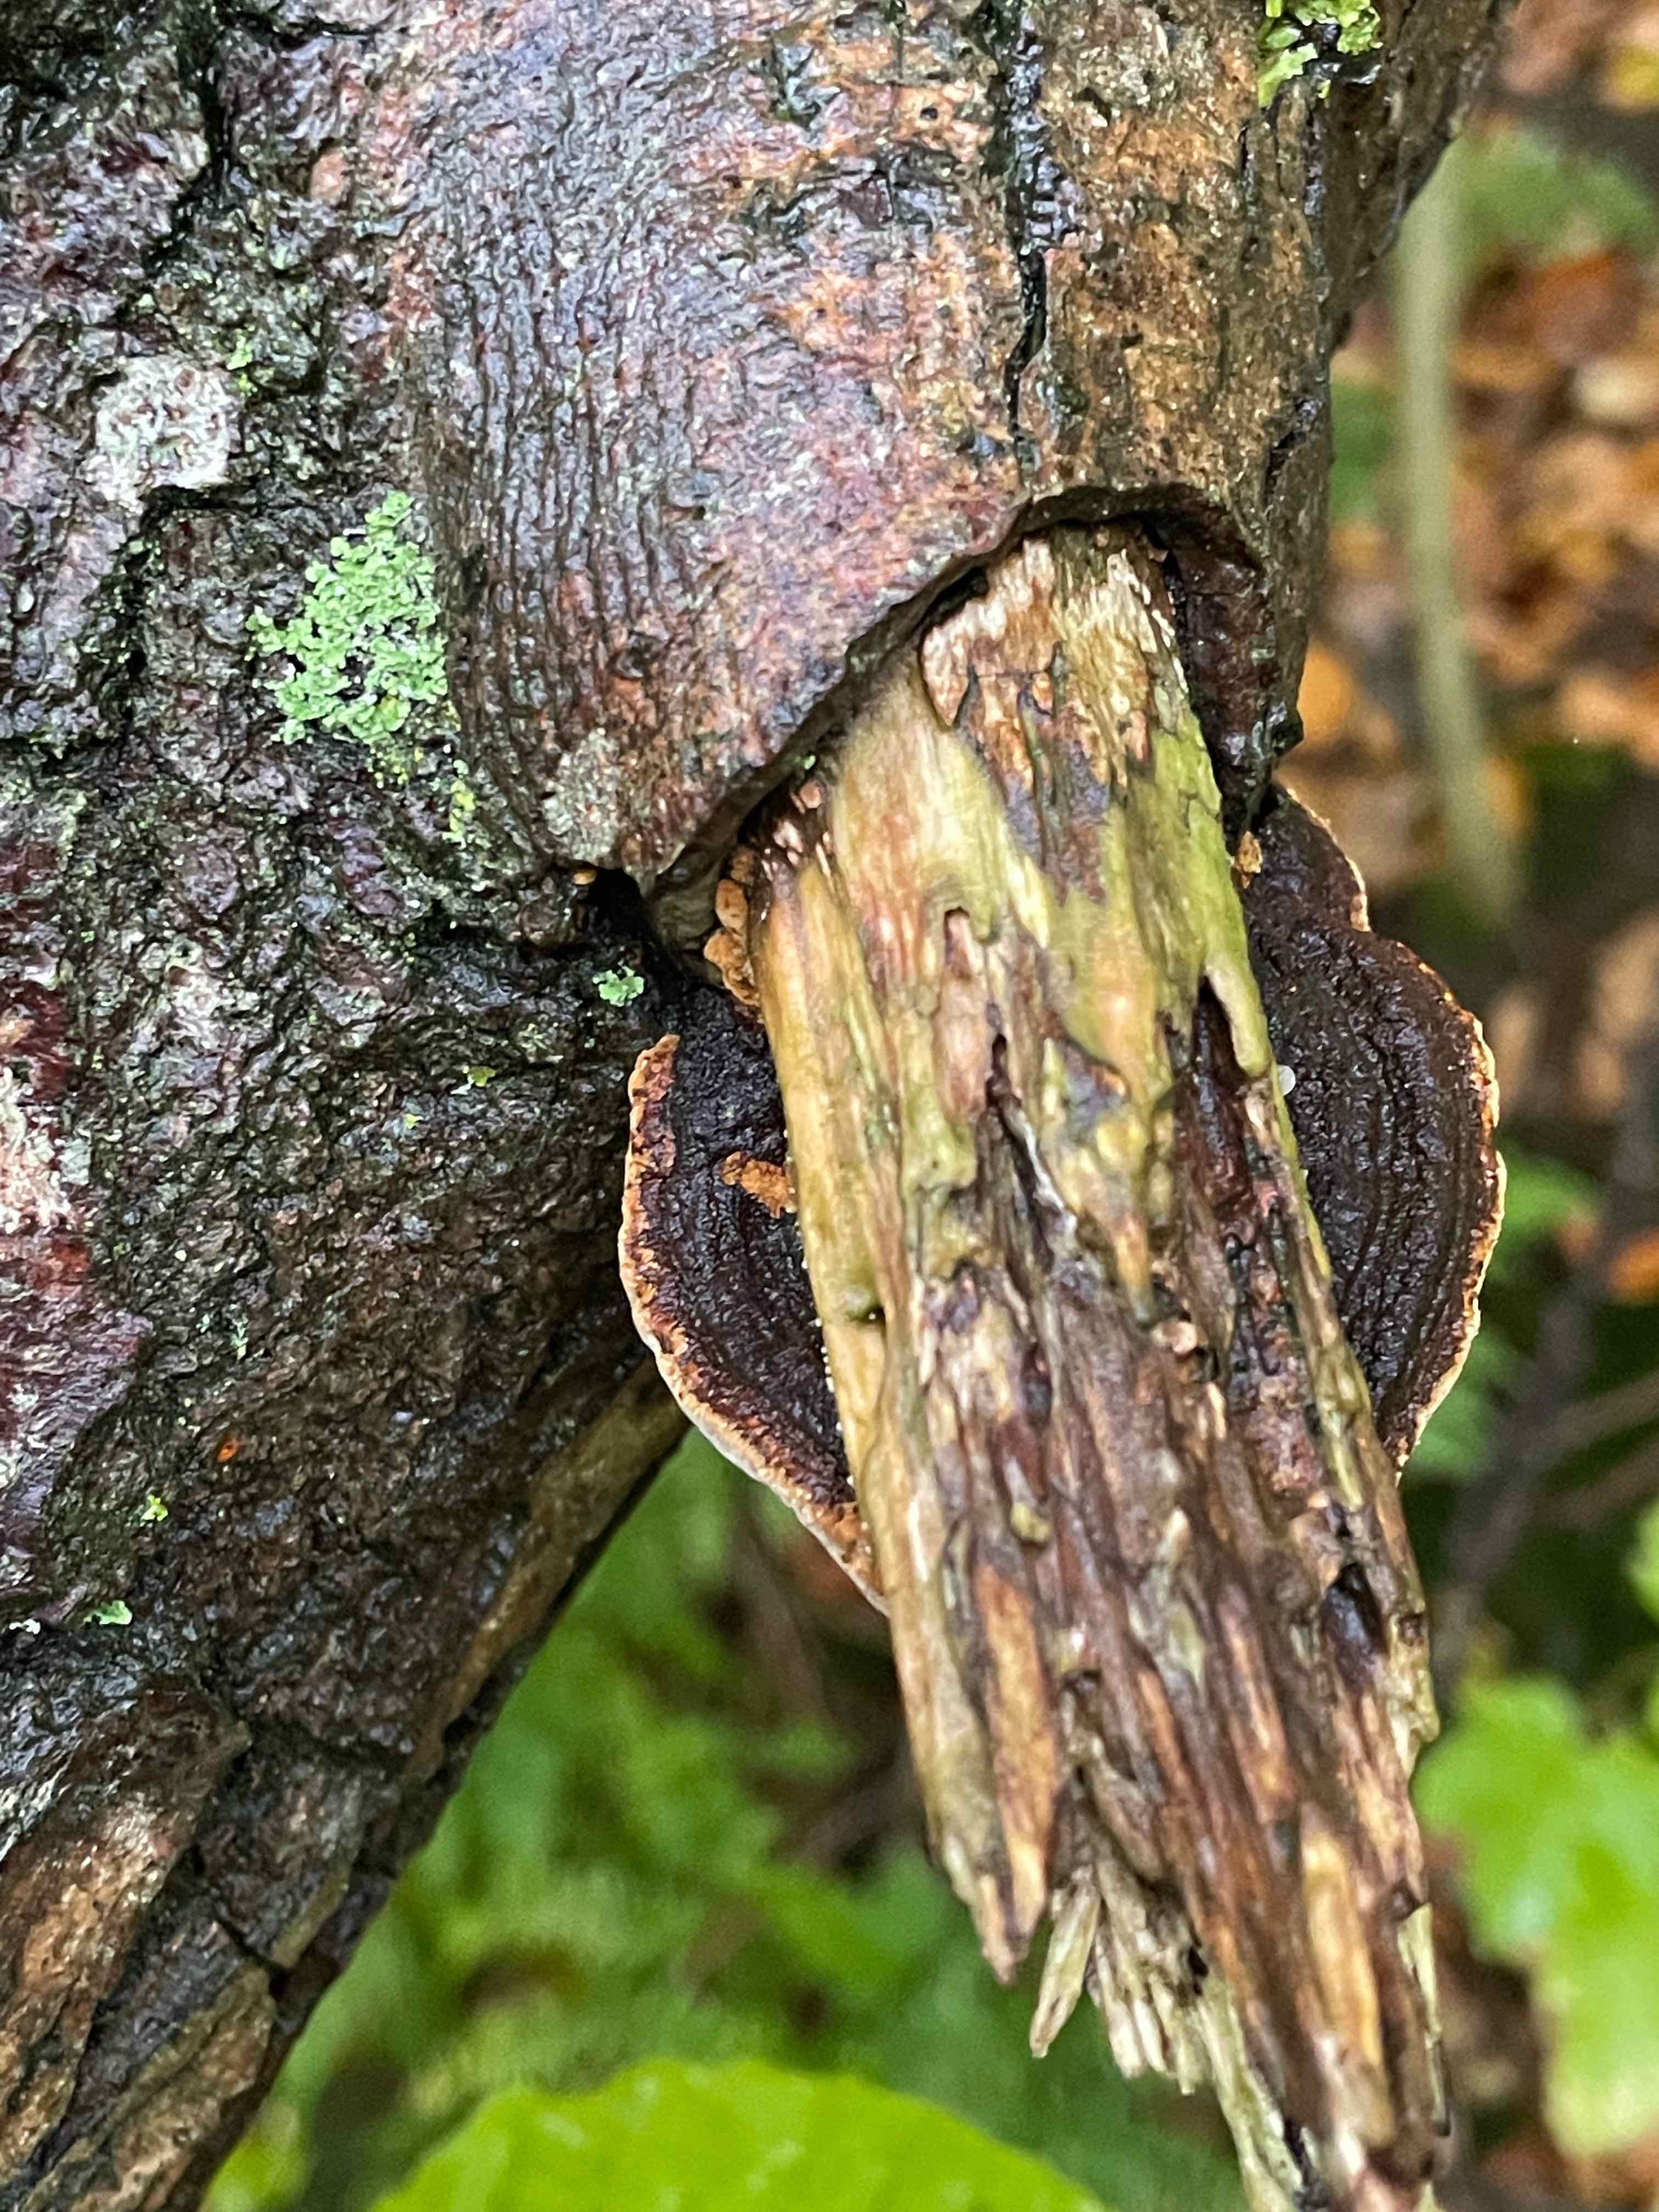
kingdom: Fungi
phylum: Basidiomycota
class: Agaricomycetes
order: Hymenochaetales
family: Hymenochaetaceae
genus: Phellinopsis
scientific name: Phellinopsis conchata
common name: pile-ildporesvamp
